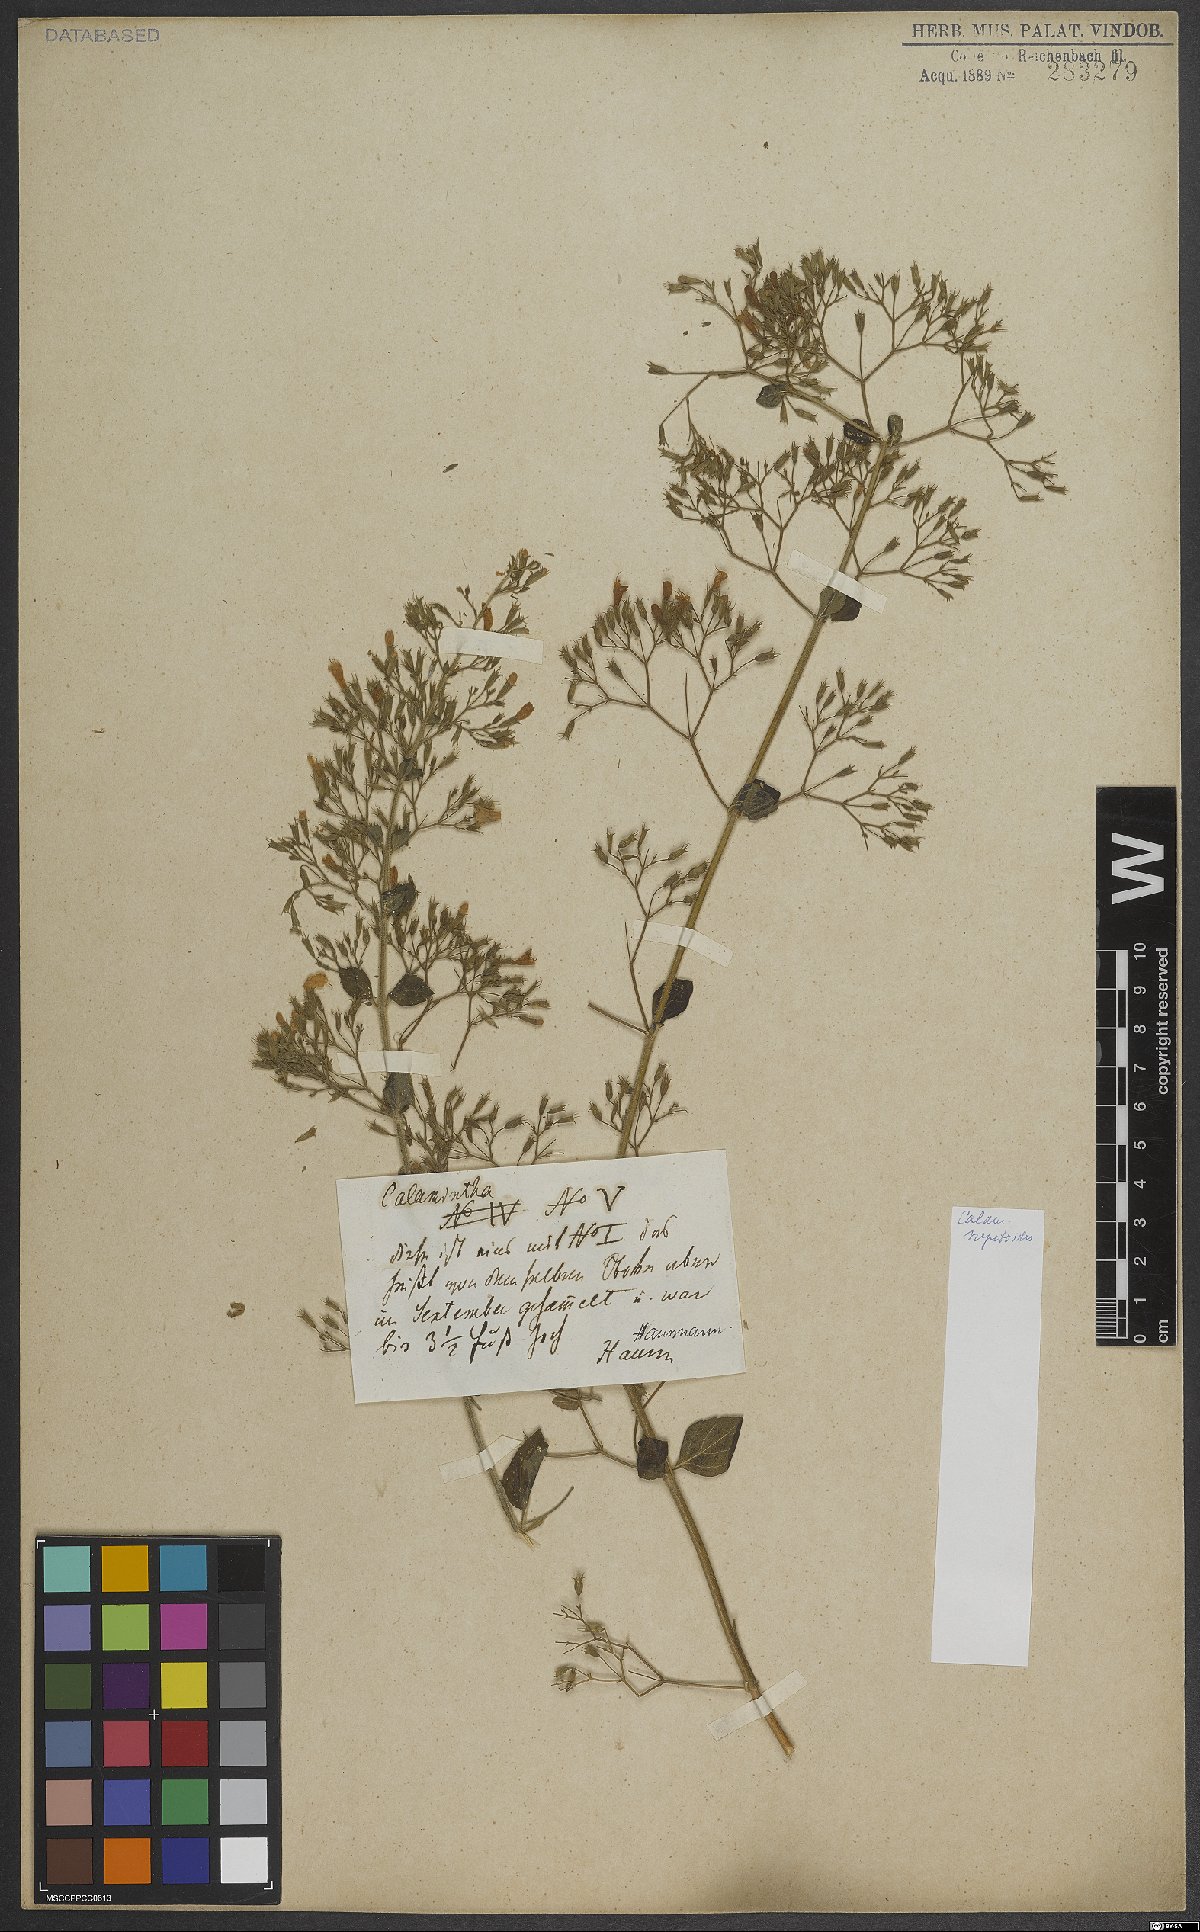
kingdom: Plantae
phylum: Tracheophyta
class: Magnoliopsida
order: Lamiales
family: Lamiaceae
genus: Clinopodium
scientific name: Clinopodium nepeta
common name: Lesser calamint
